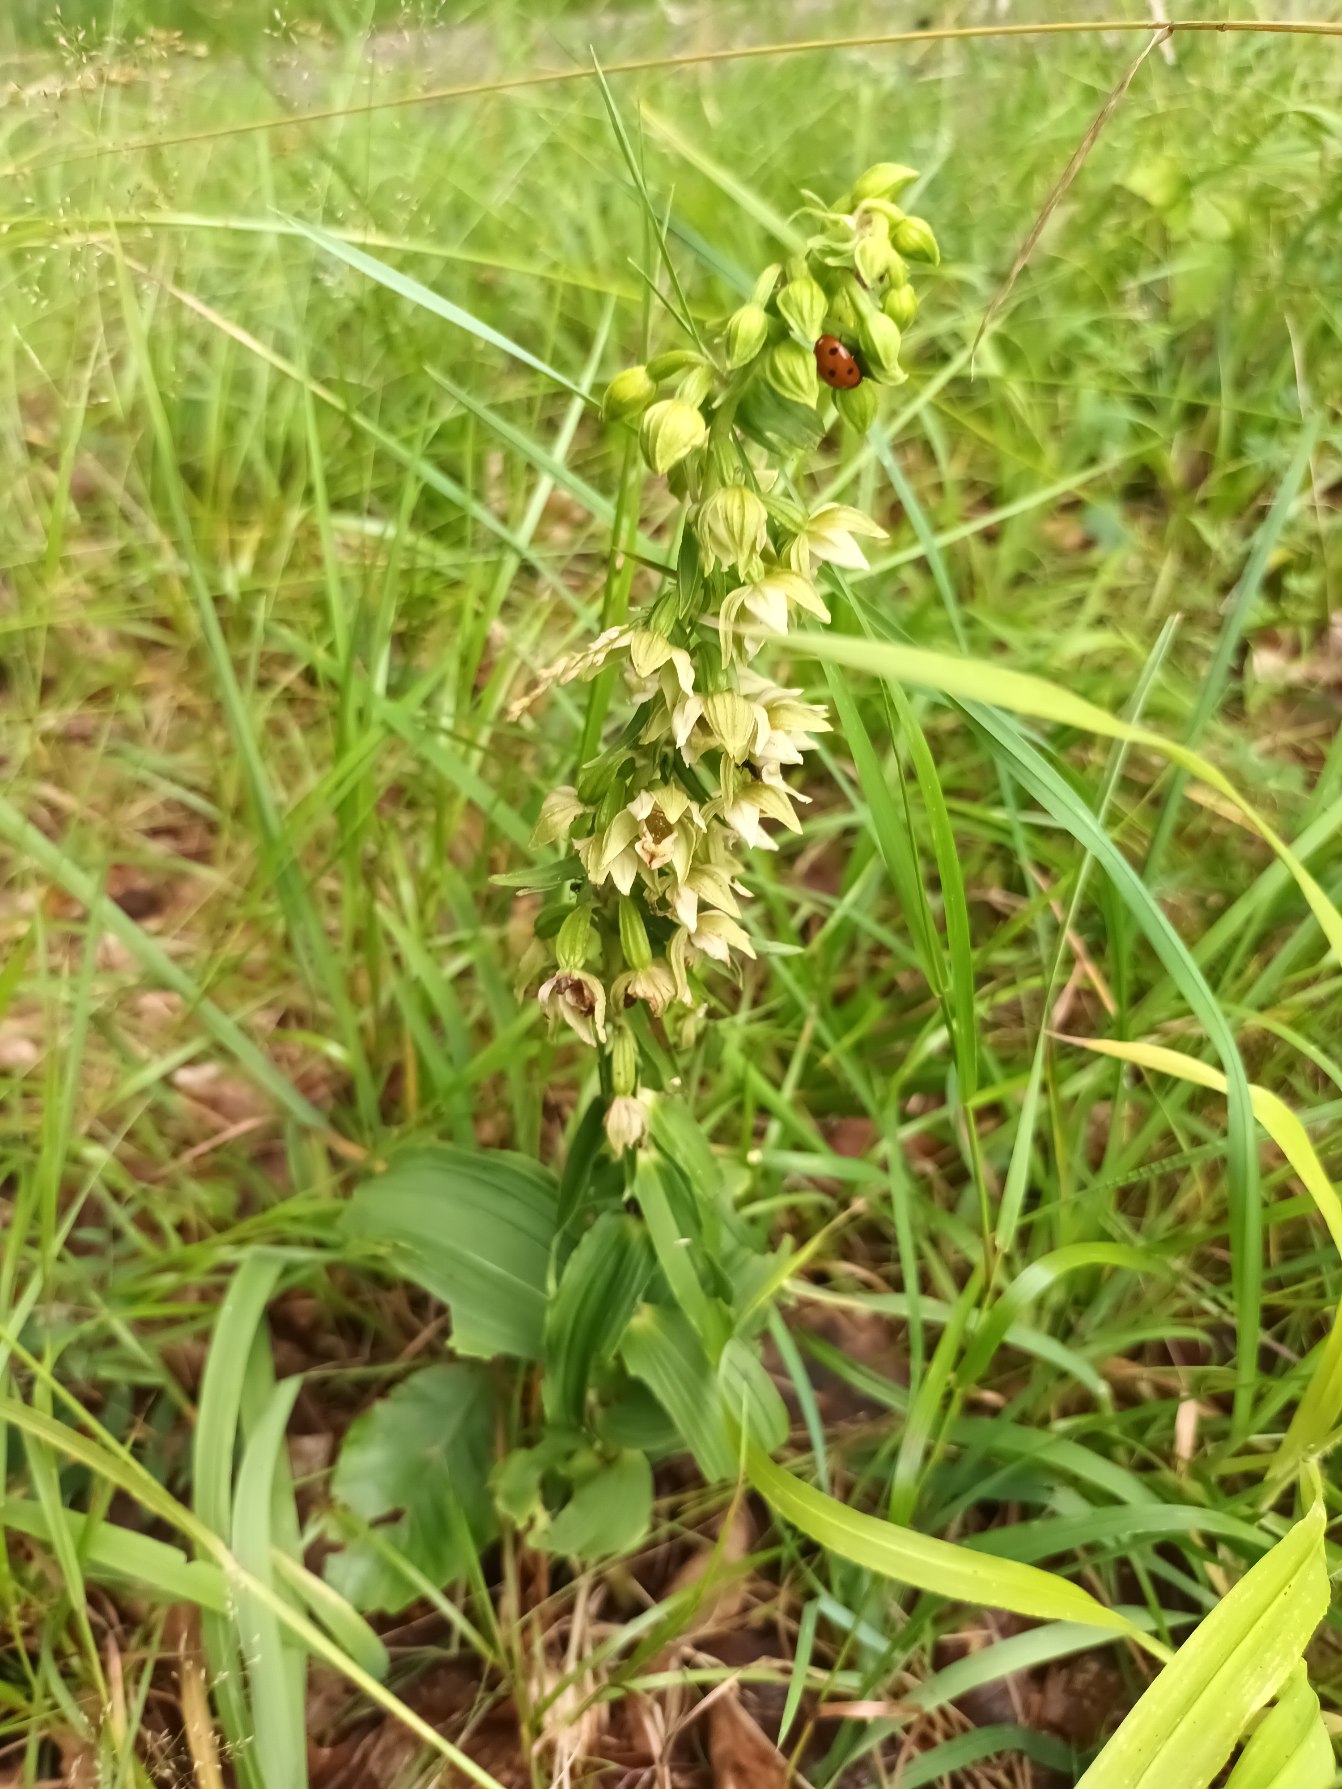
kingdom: Plantae
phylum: Tracheophyta
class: Liliopsida
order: Asparagales
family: Orchidaceae
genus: Epipactis
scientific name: Epipactis helleborine
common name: Skov-hullæbe
